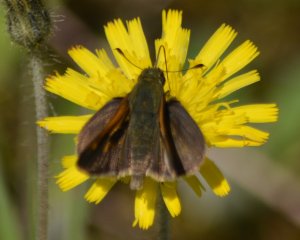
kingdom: Animalia
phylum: Arthropoda
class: Insecta
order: Lepidoptera
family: Hesperiidae
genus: Polites
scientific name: Polites themistocles
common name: Tawny-edged Skipper
